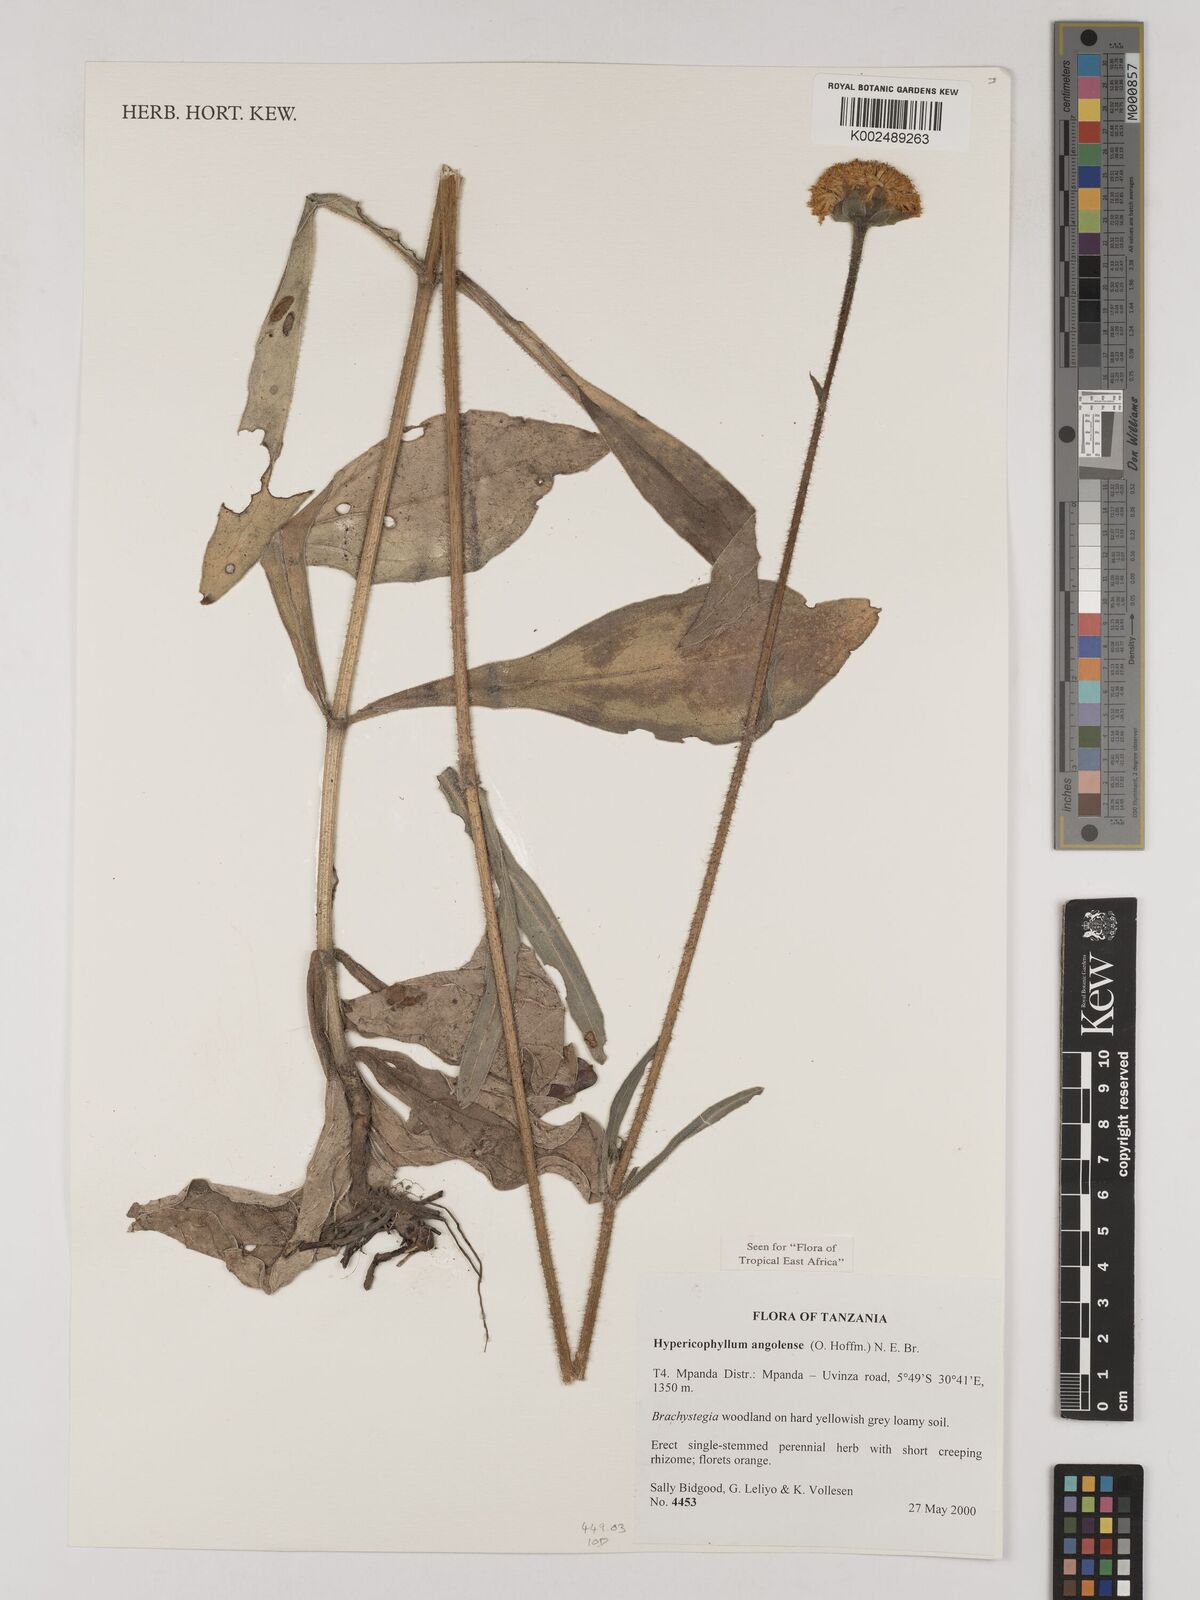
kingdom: Plantae
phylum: Tracheophyta
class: Magnoliopsida
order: Asterales
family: Asteraceae
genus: Hypericophyllum
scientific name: Hypericophyllum angolense
